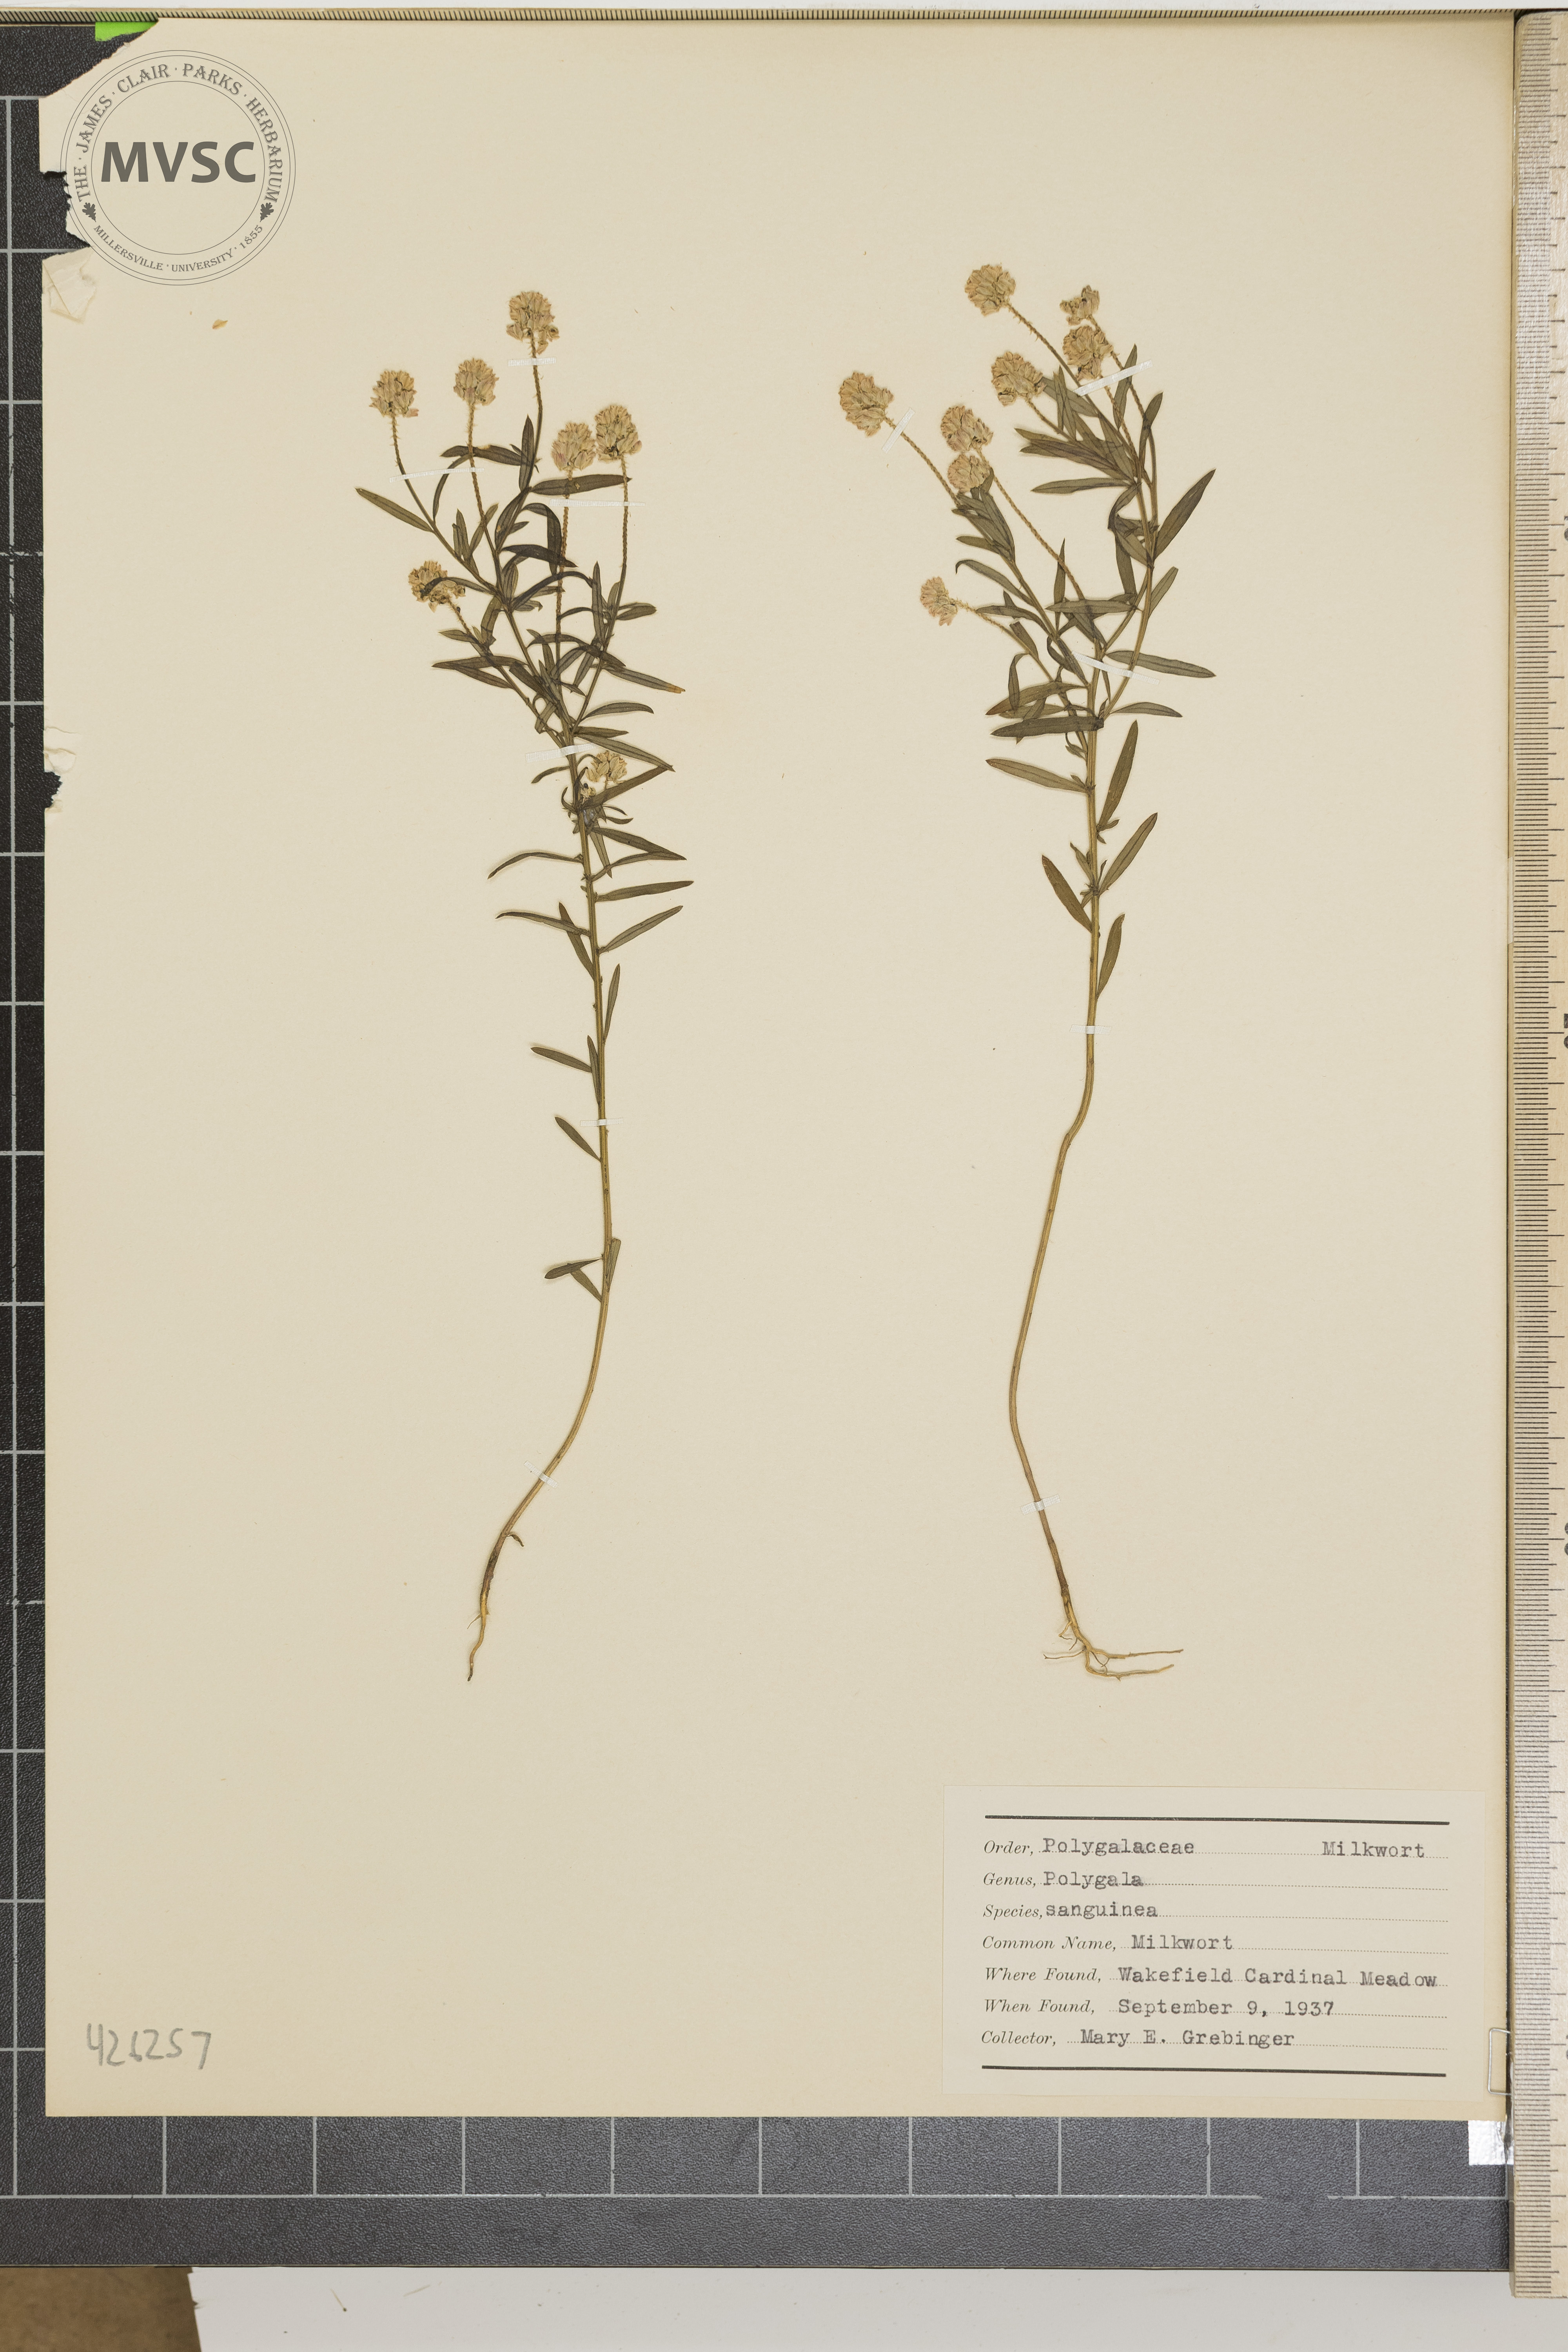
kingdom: Plantae
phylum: Tracheophyta
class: Magnoliopsida
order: Fabales
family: Polygalaceae
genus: Polygala
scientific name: Polygala sanguinea
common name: Milkwort
